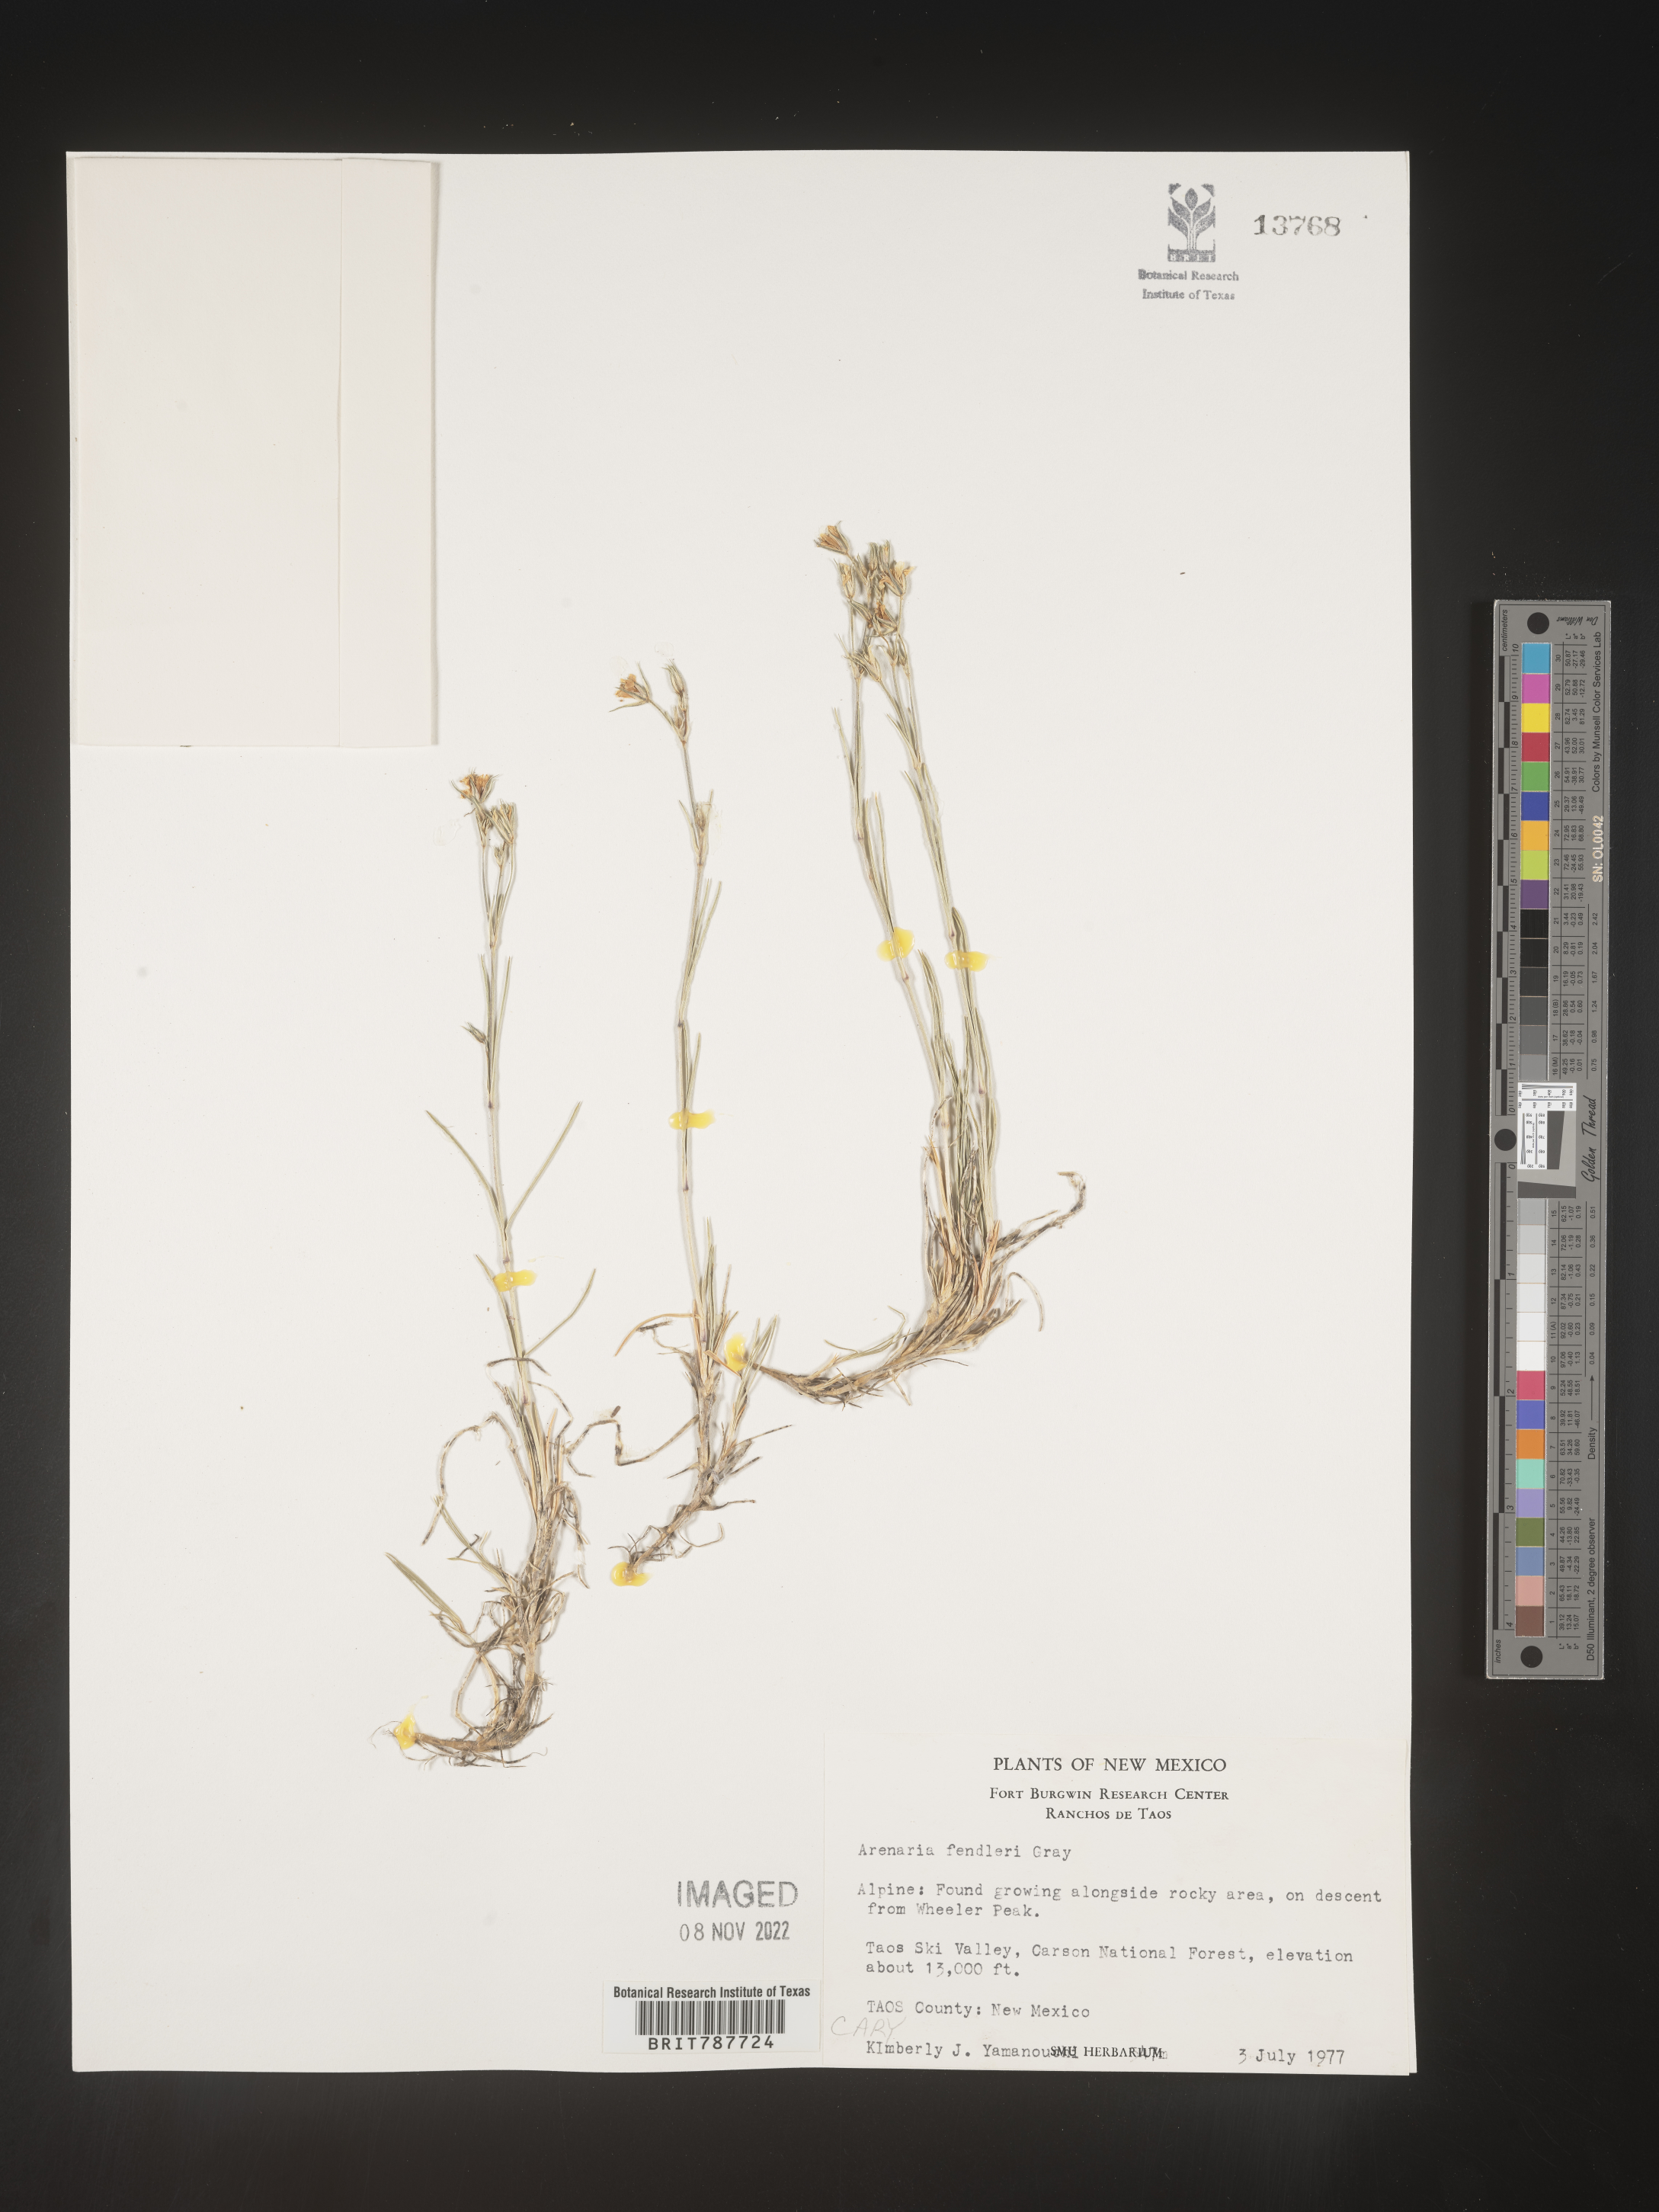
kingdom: Plantae
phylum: Tracheophyta
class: Magnoliopsida
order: Caryophyllales
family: Caryophyllaceae
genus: Arenaria
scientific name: Arenaria
